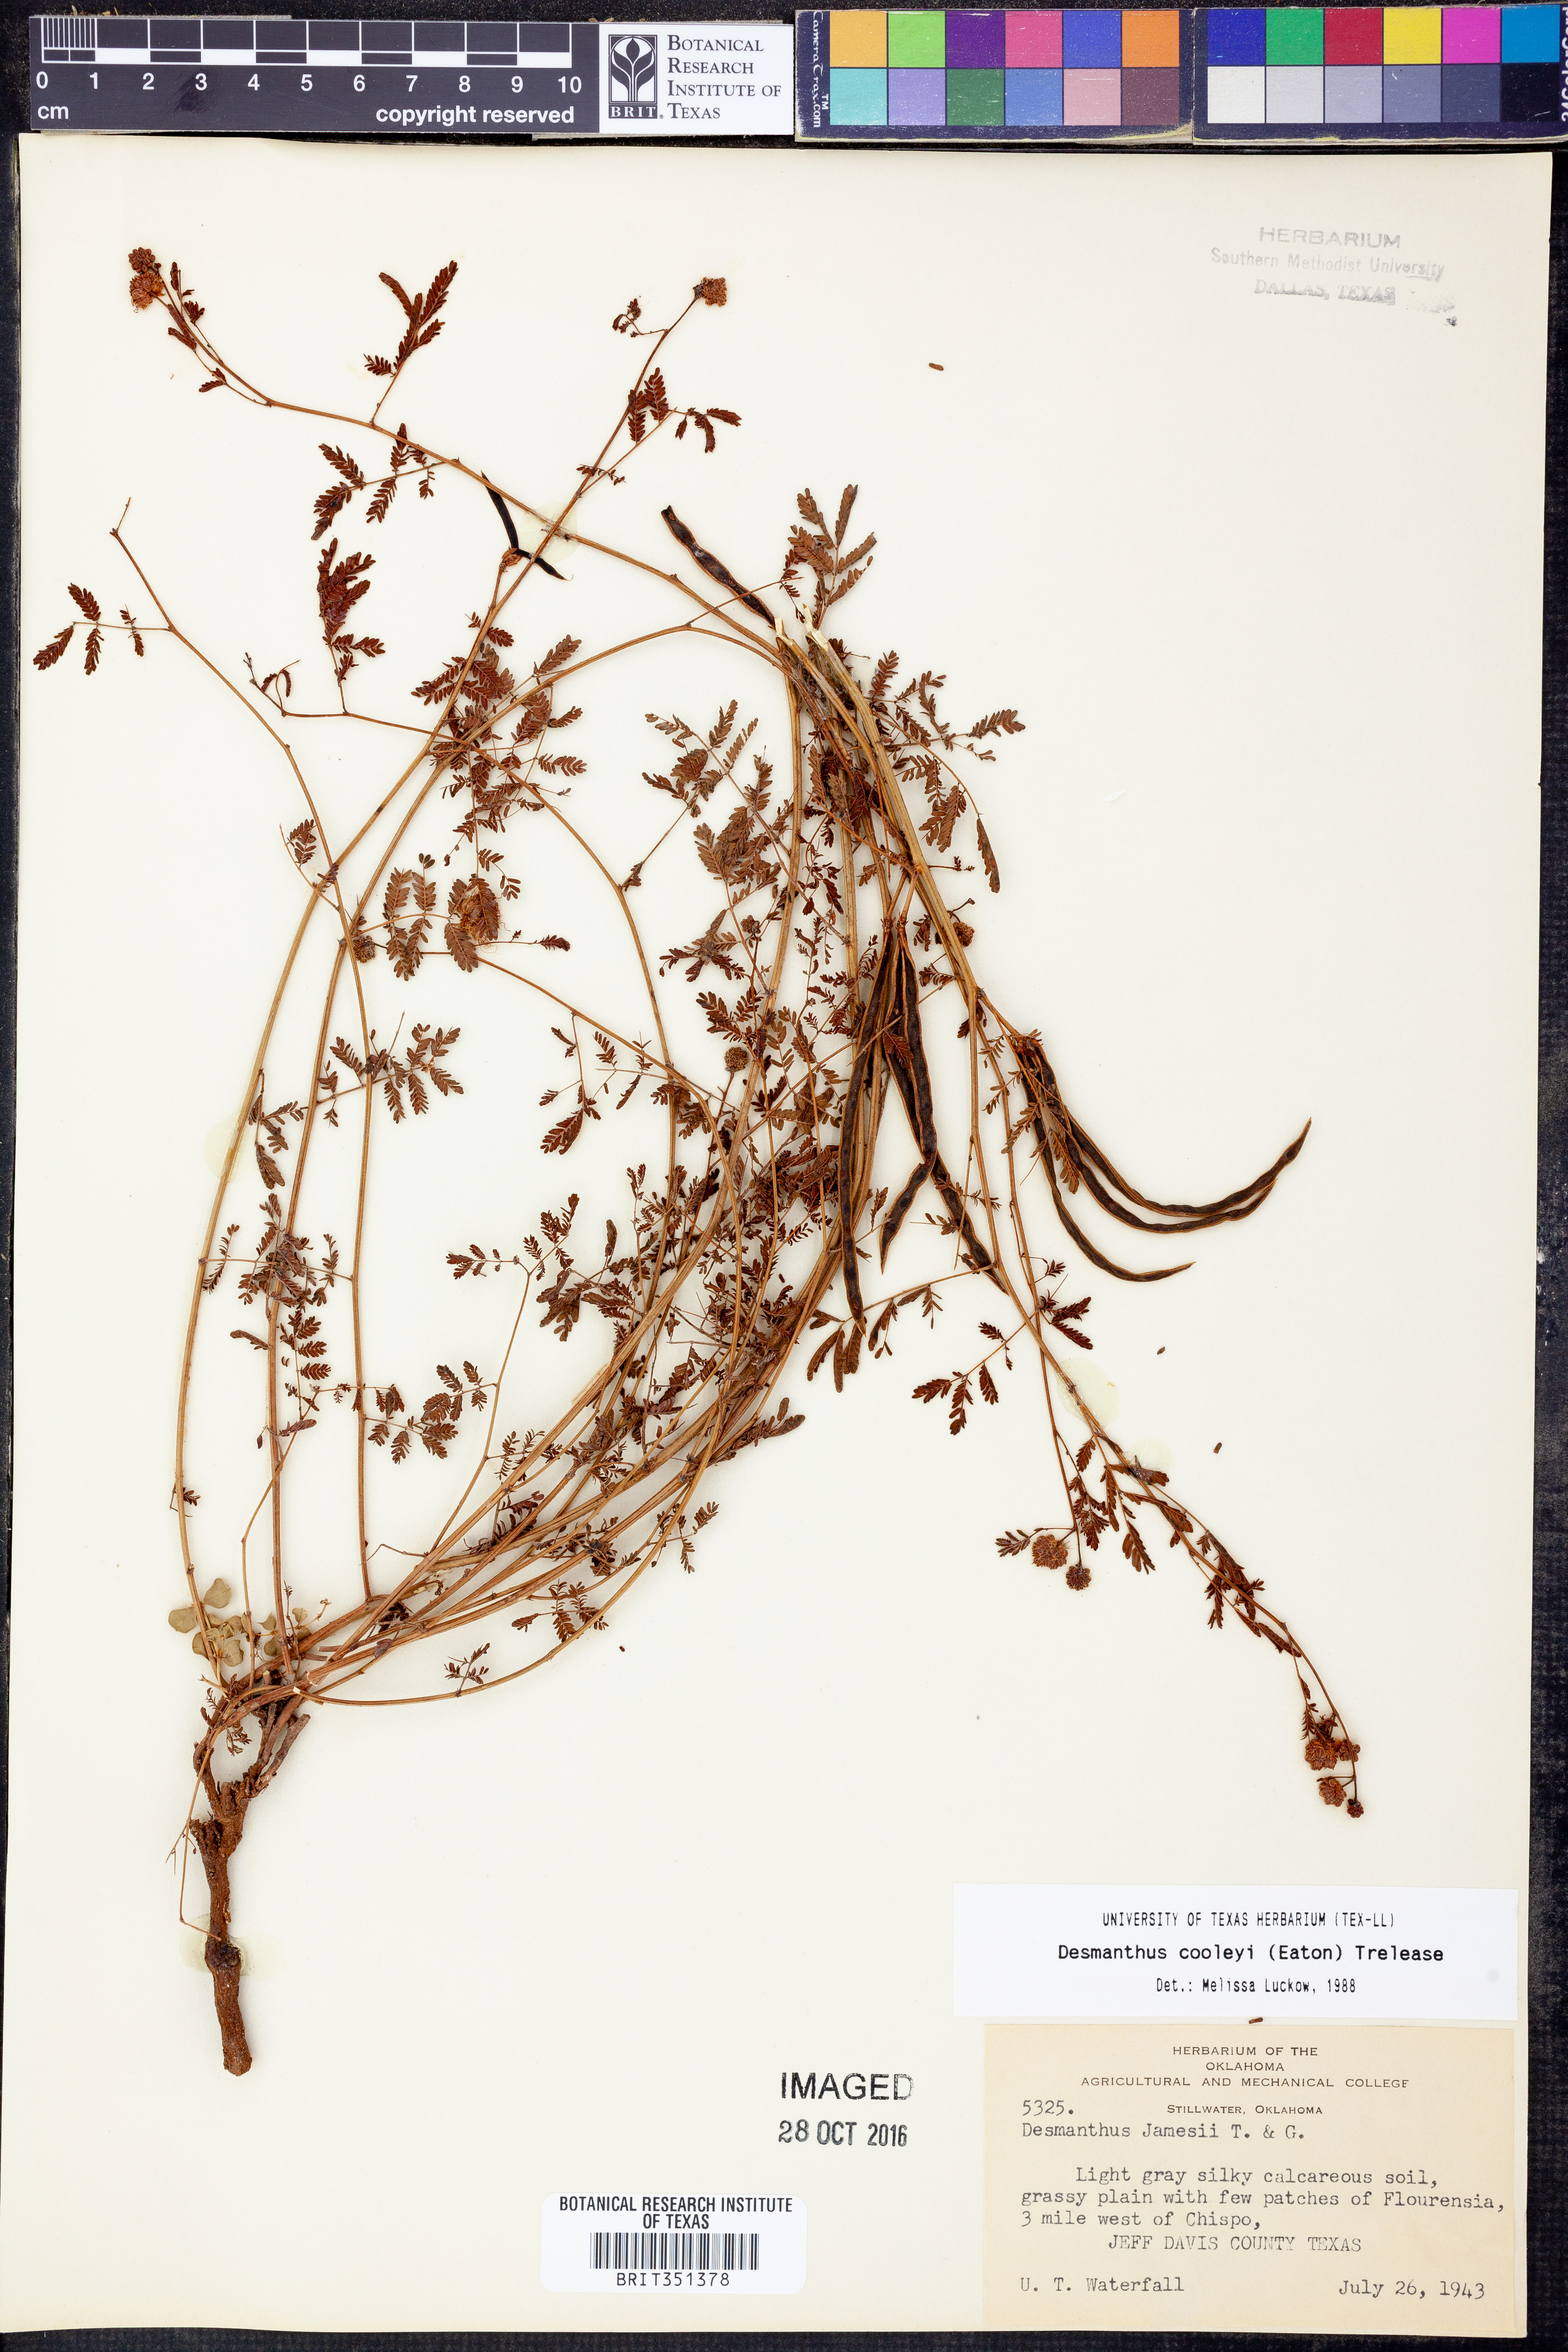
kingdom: Plantae
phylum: Tracheophyta
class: Magnoliopsida
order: Fabales
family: Fabaceae
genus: Desmanthus
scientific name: Desmanthus cooleyi
